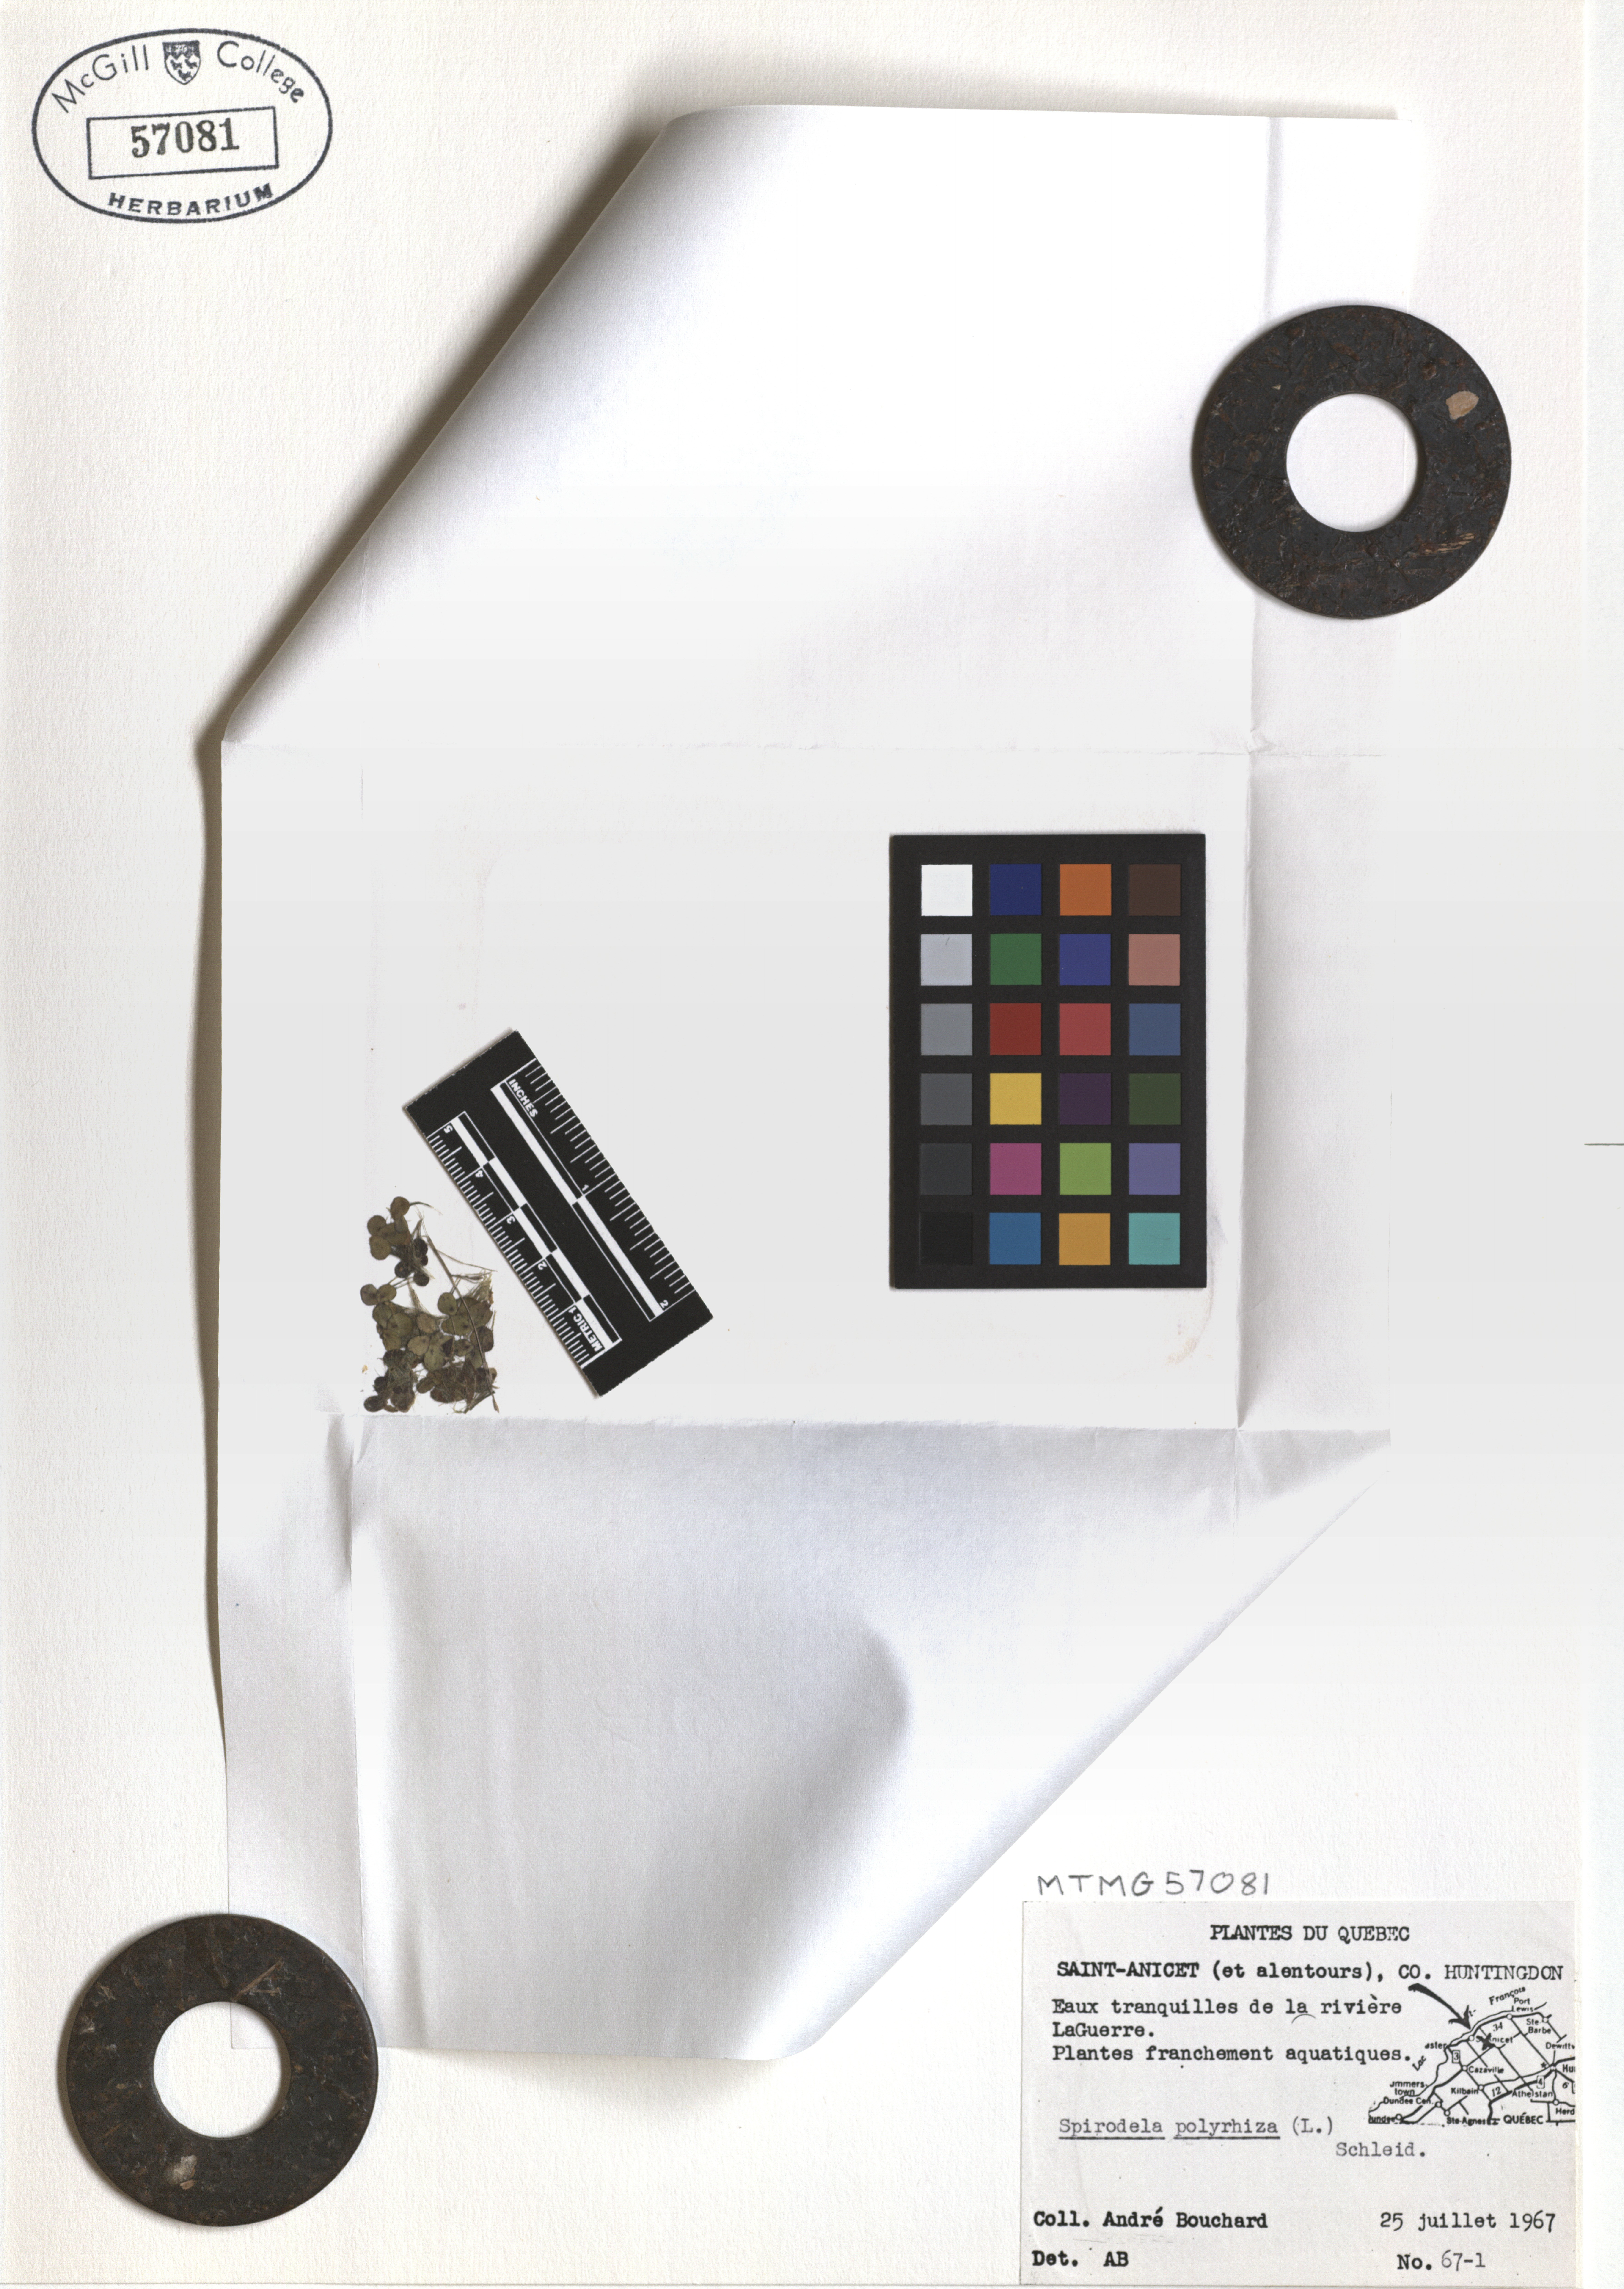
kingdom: Plantae
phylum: Tracheophyta
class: Liliopsida
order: Alismatales
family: Araceae
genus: Spirodela
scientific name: Spirodela polyrhiza
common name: Great duckweed
